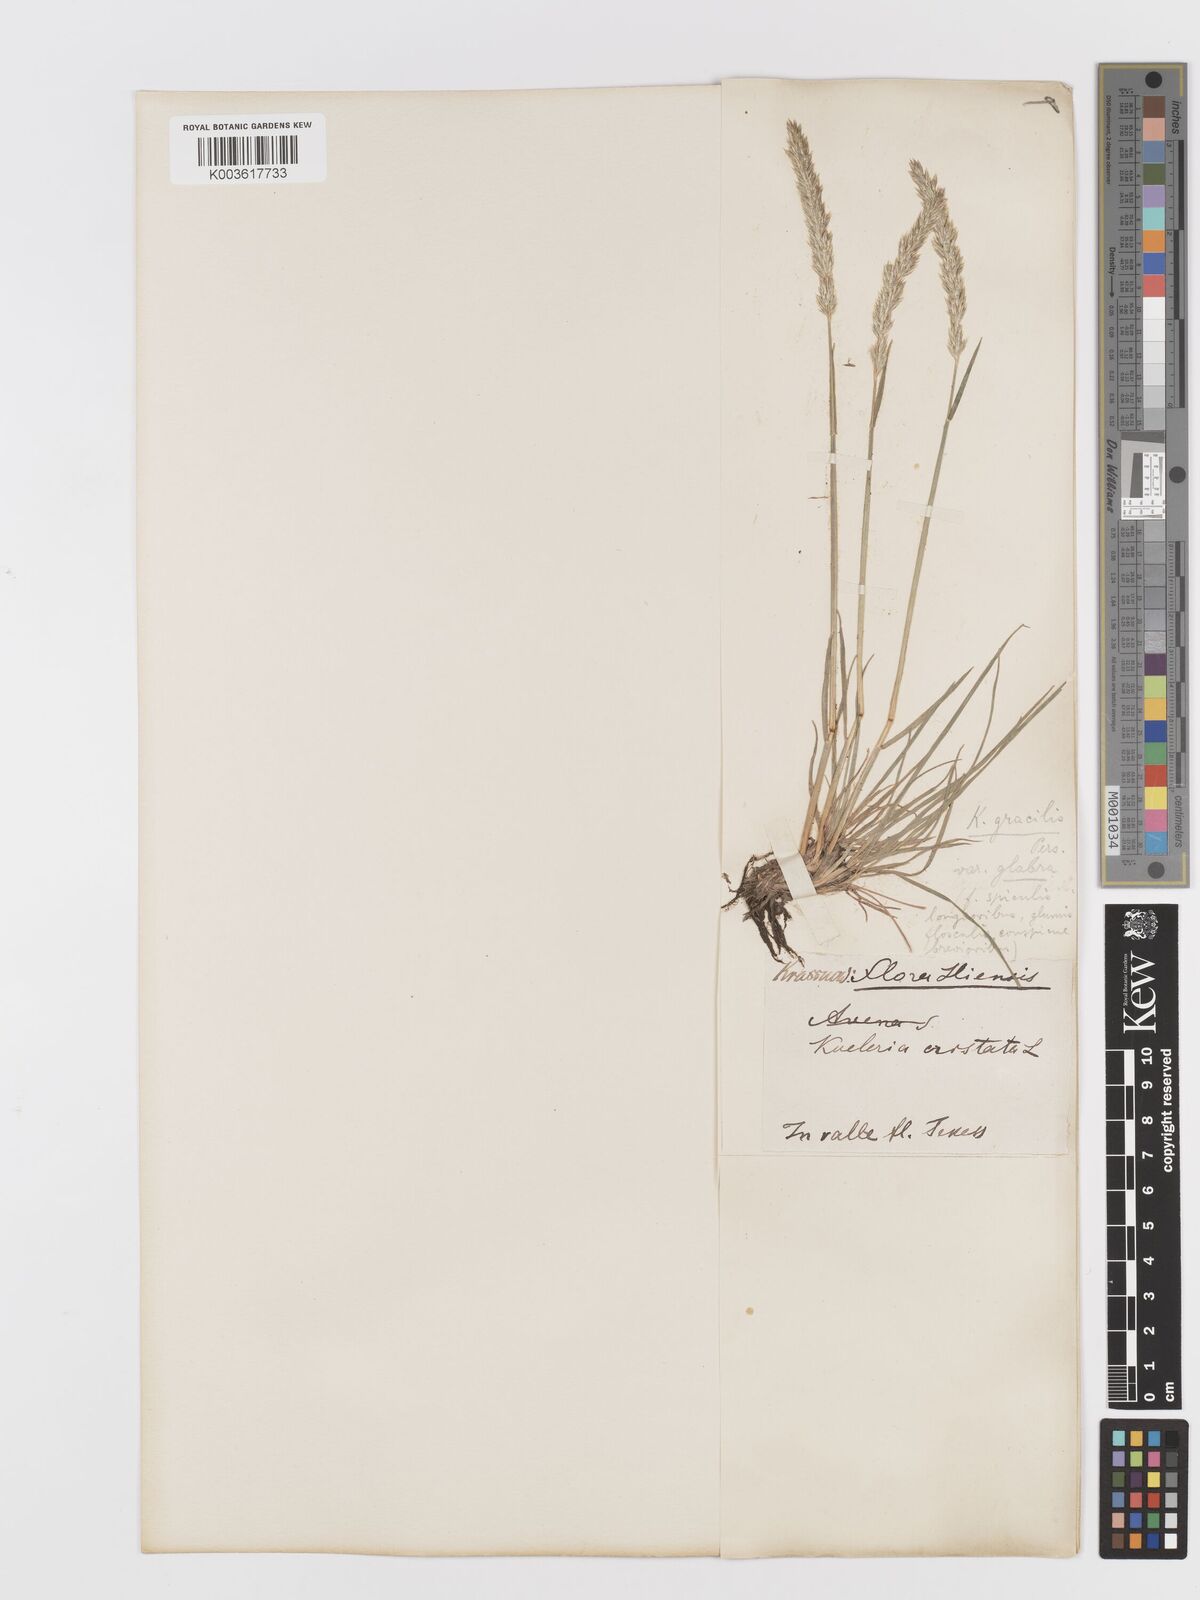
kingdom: Plantae
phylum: Tracheophyta
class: Liliopsida
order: Poales
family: Poaceae
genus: Koeleria
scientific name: Koeleria splendens
